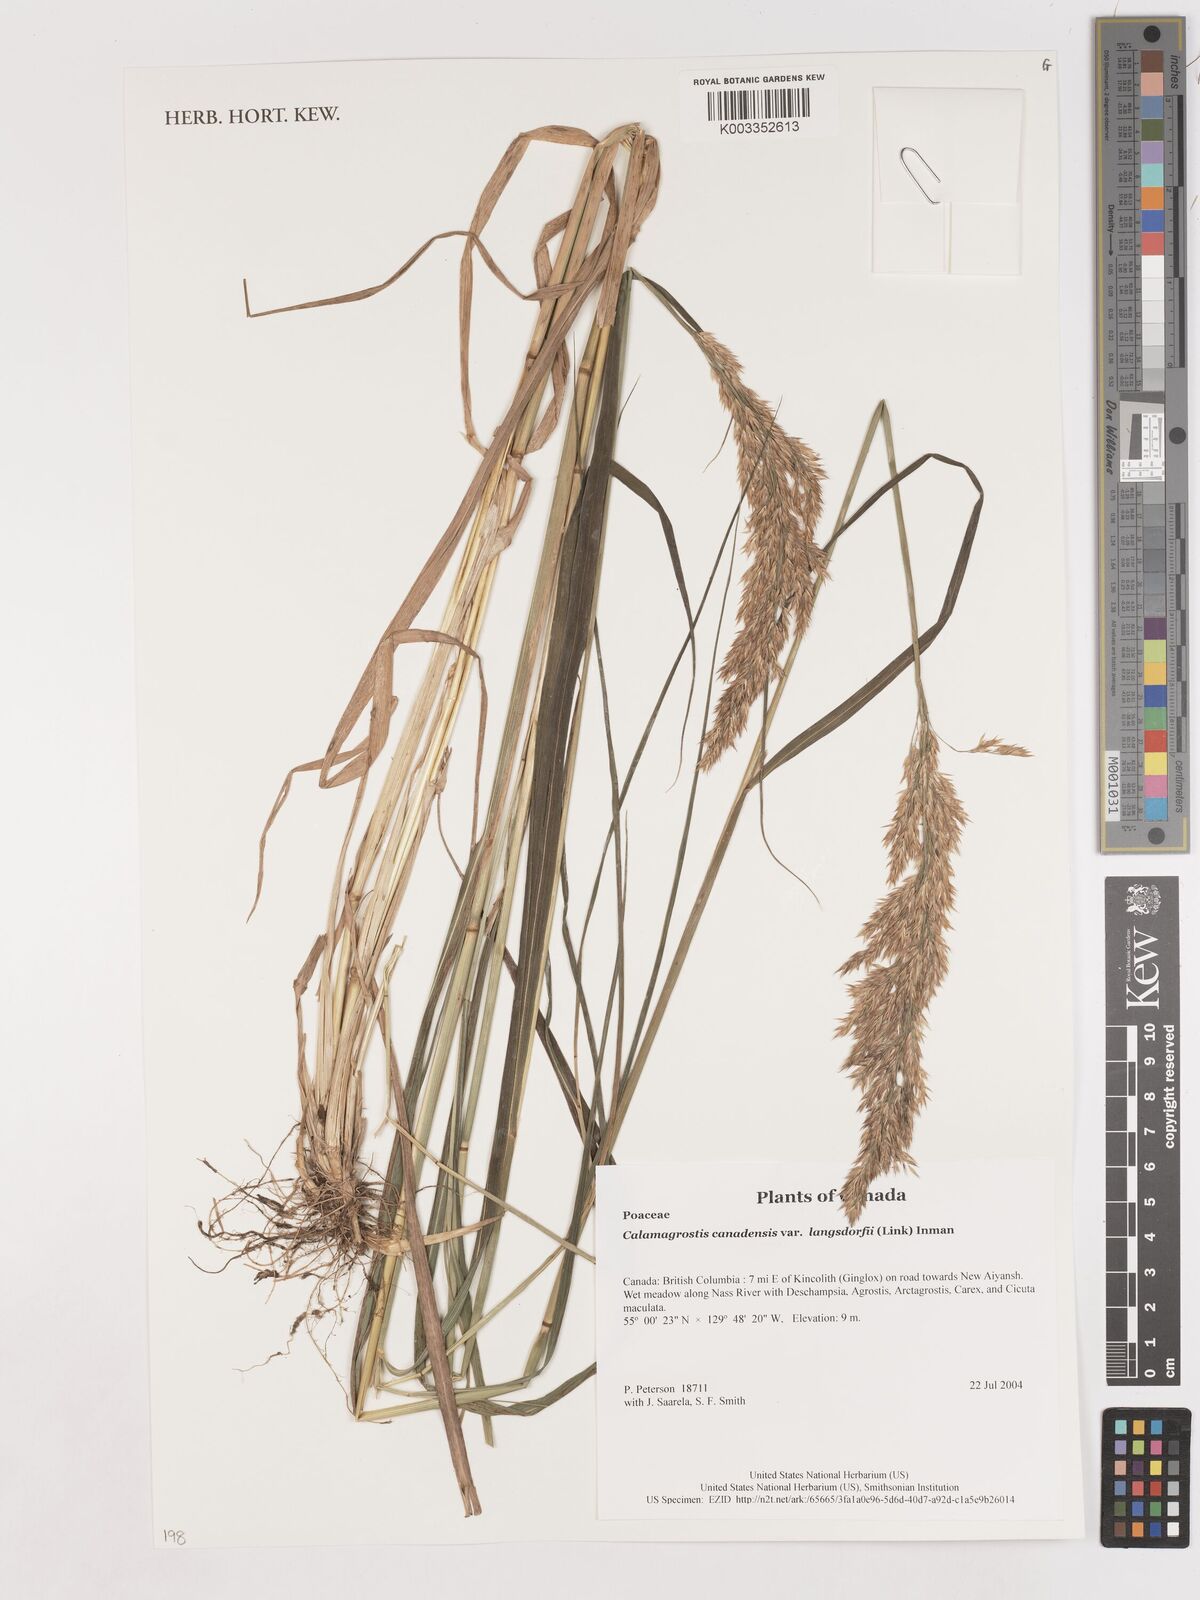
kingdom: Plantae
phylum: Tracheophyta
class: Liliopsida
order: Poales
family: Poaceae
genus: Calamagrostis
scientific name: Calamagrostis canadensis
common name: Canada bluejoint
